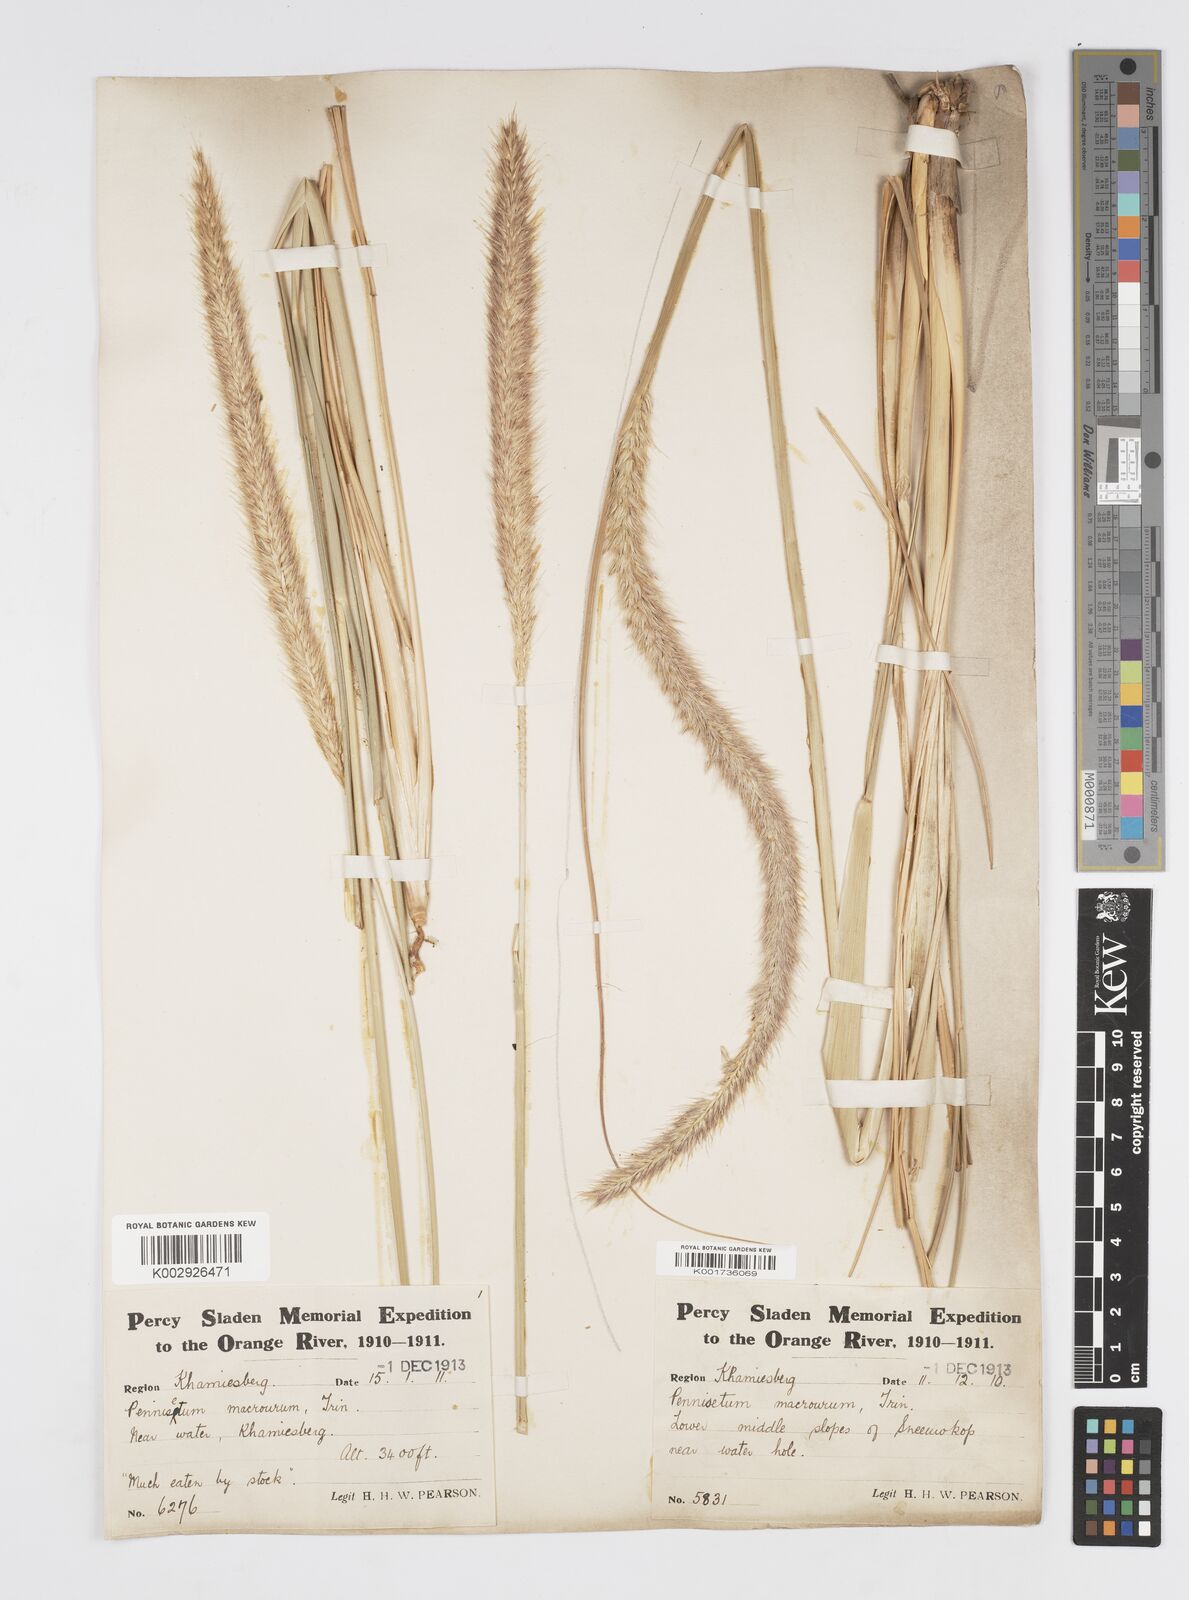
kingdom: Plantae
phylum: Tracheophyta
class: Liliopsida
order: Poales
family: Poaceae
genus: Cenchrus
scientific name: Cenchrus caudatus
